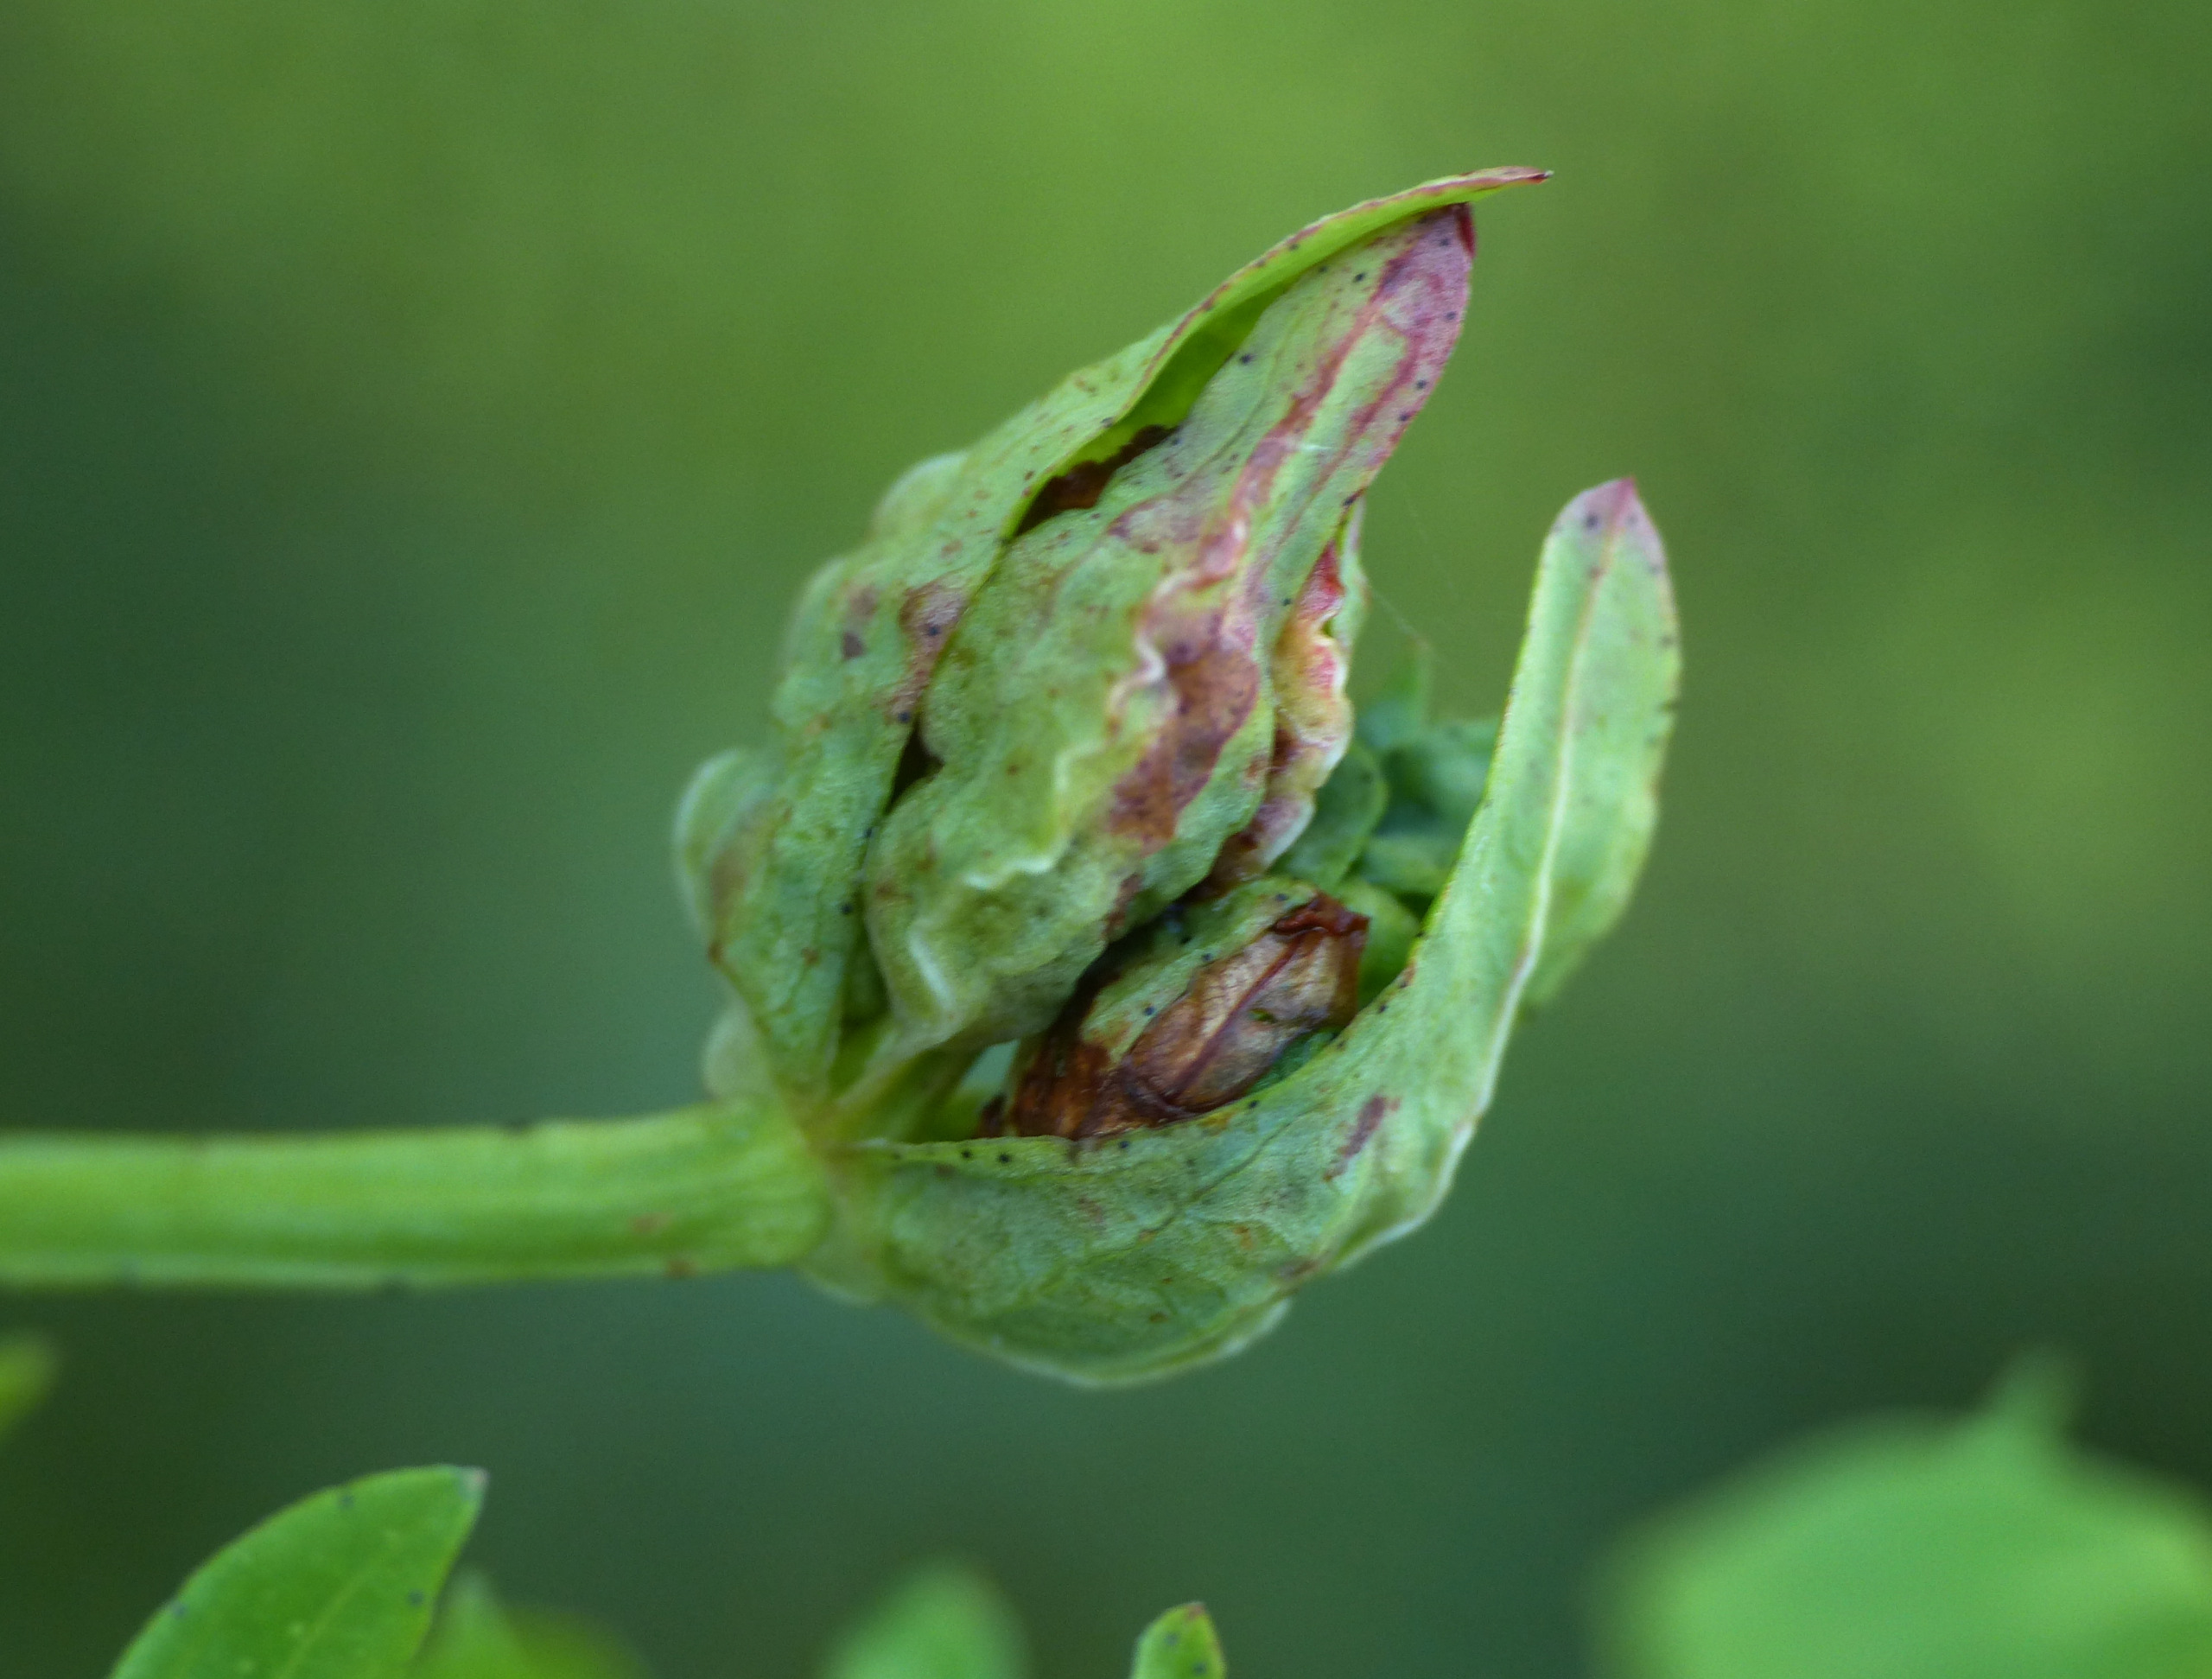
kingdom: Animalia
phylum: Arthropoda
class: Insecta
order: Diptera
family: Cecidomyiidae
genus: Dasineura
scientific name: Dasineura serotina
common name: Hvid perikongalmyg
